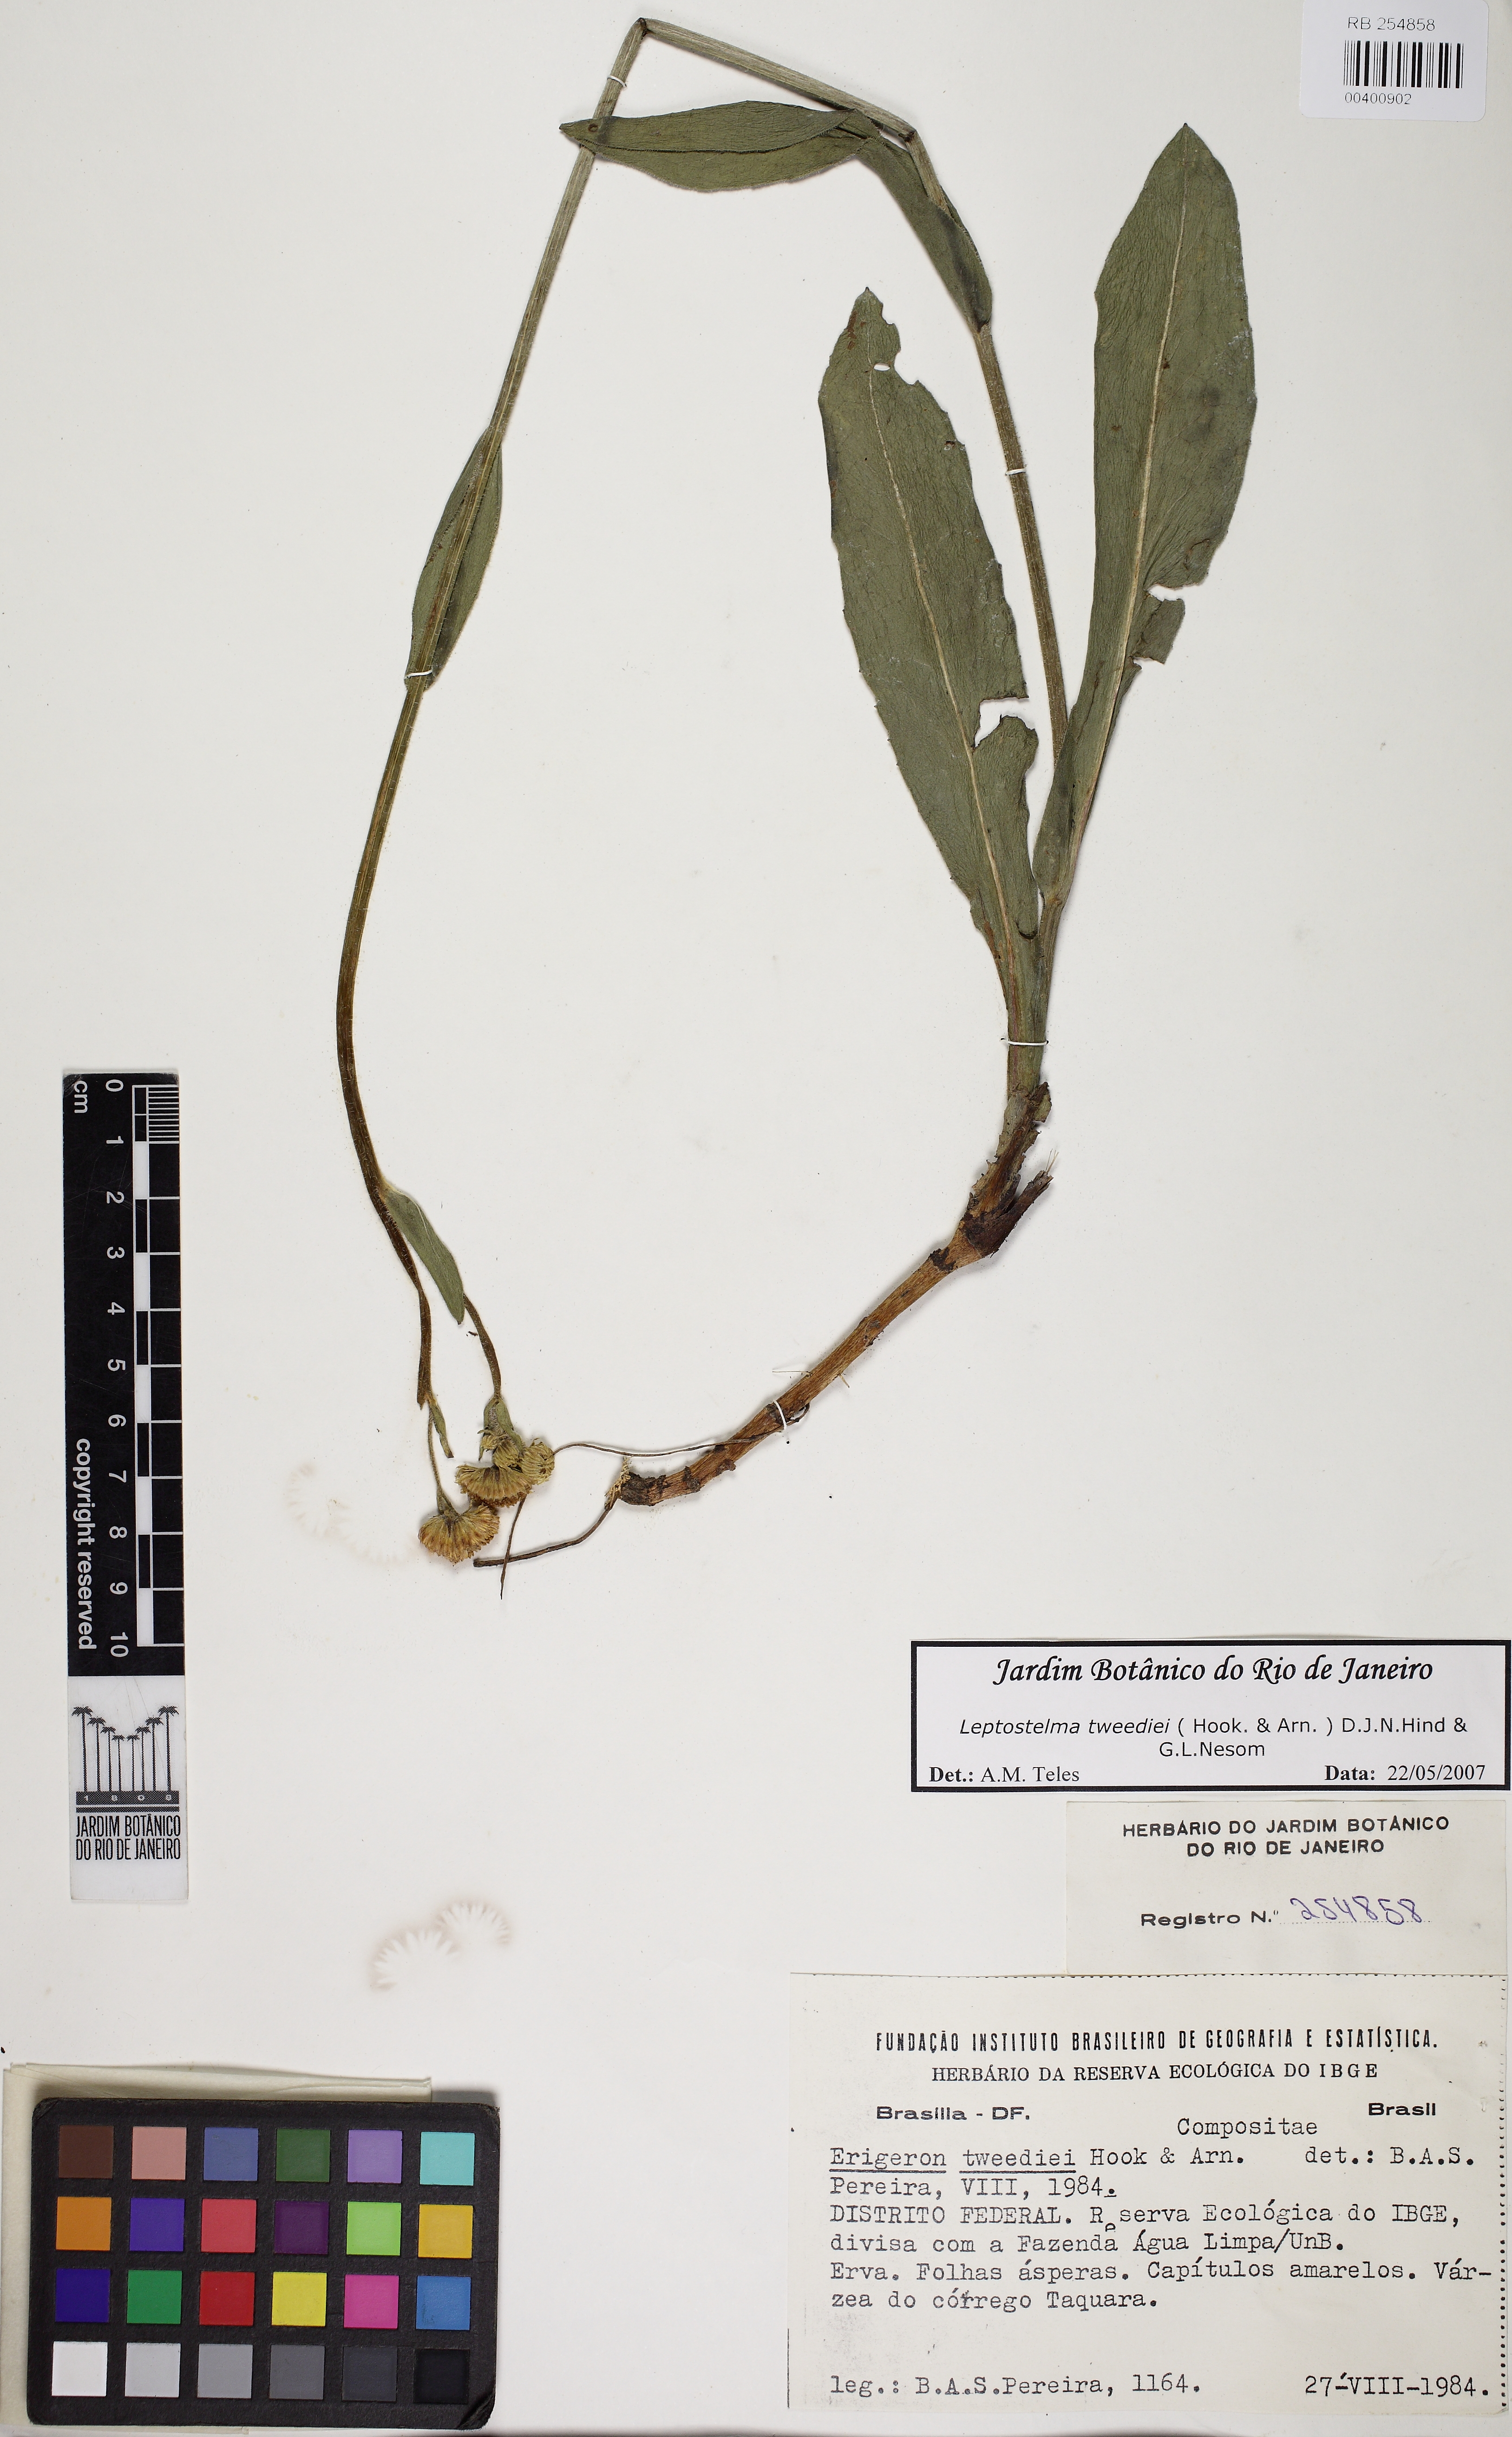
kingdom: Plantae
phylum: Tracheophyta
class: Magnoliopsida
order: Asterales
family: Asteraceae
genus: Leptostelma
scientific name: Leptostelma tweediei
